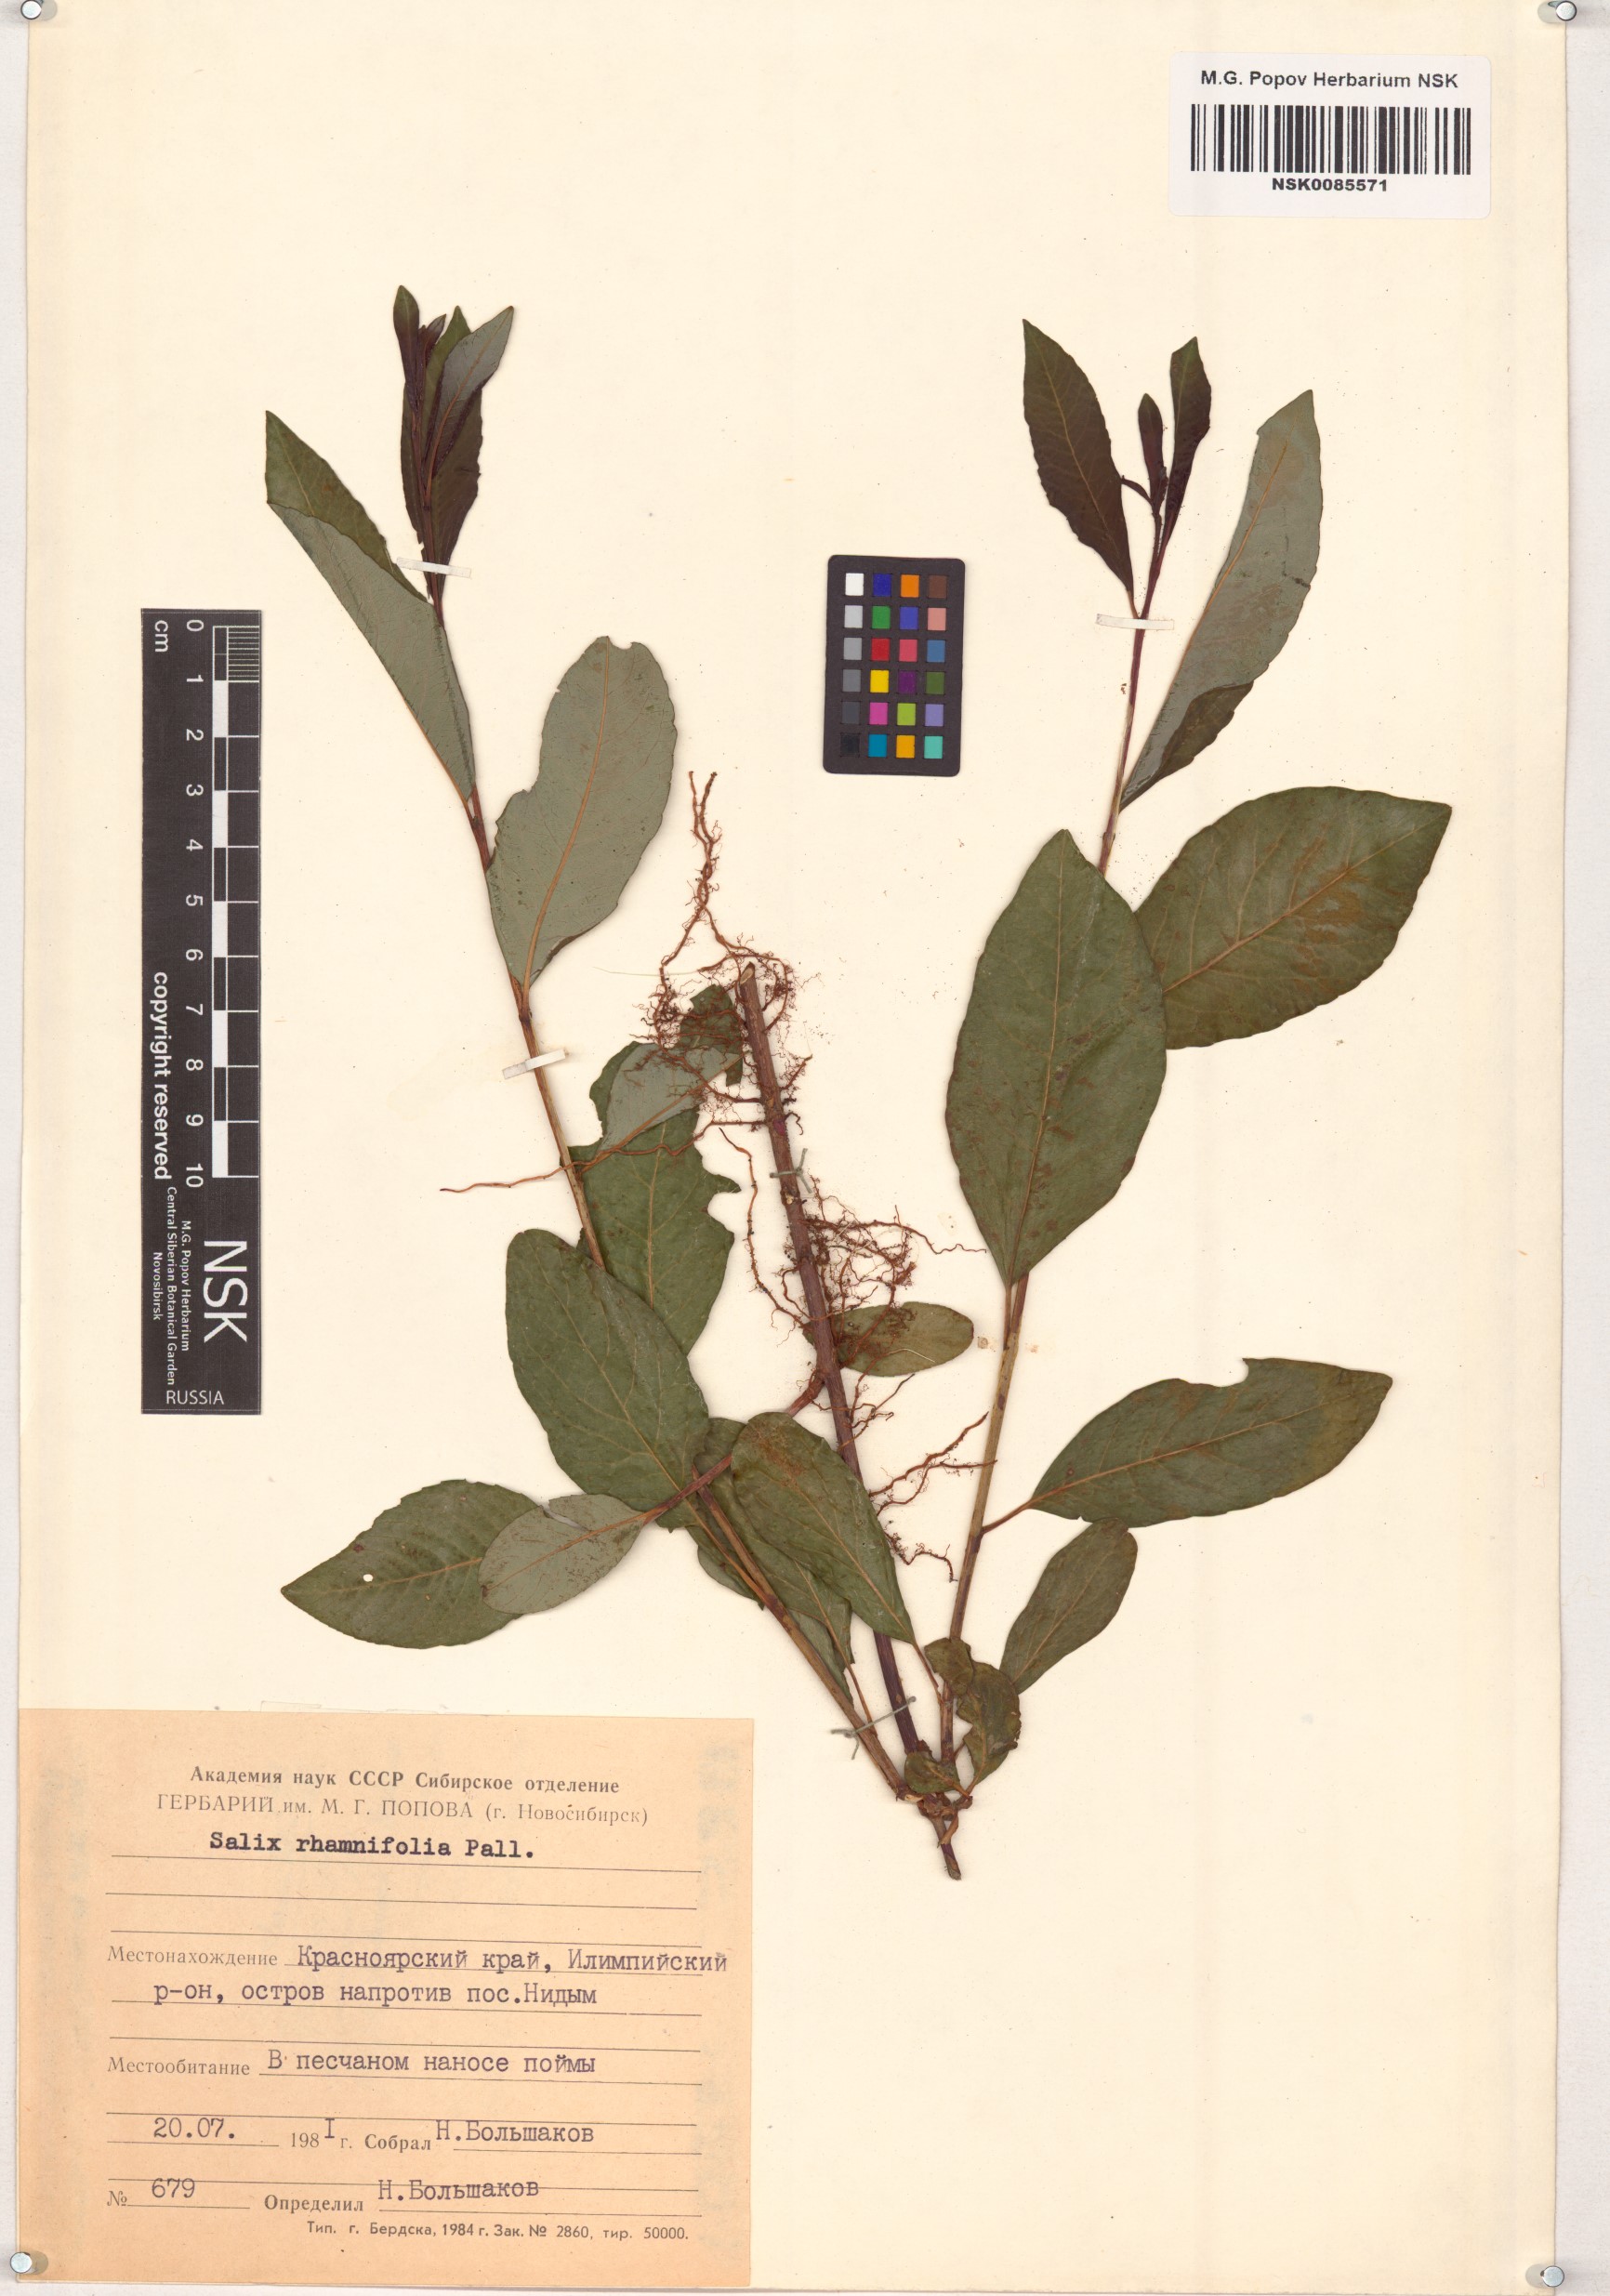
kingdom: Plantae
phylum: Tracheophyta
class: Magnoliopsida
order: Malpighiales
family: Salicaceae
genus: Salix
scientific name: Salix rhamnifolia
